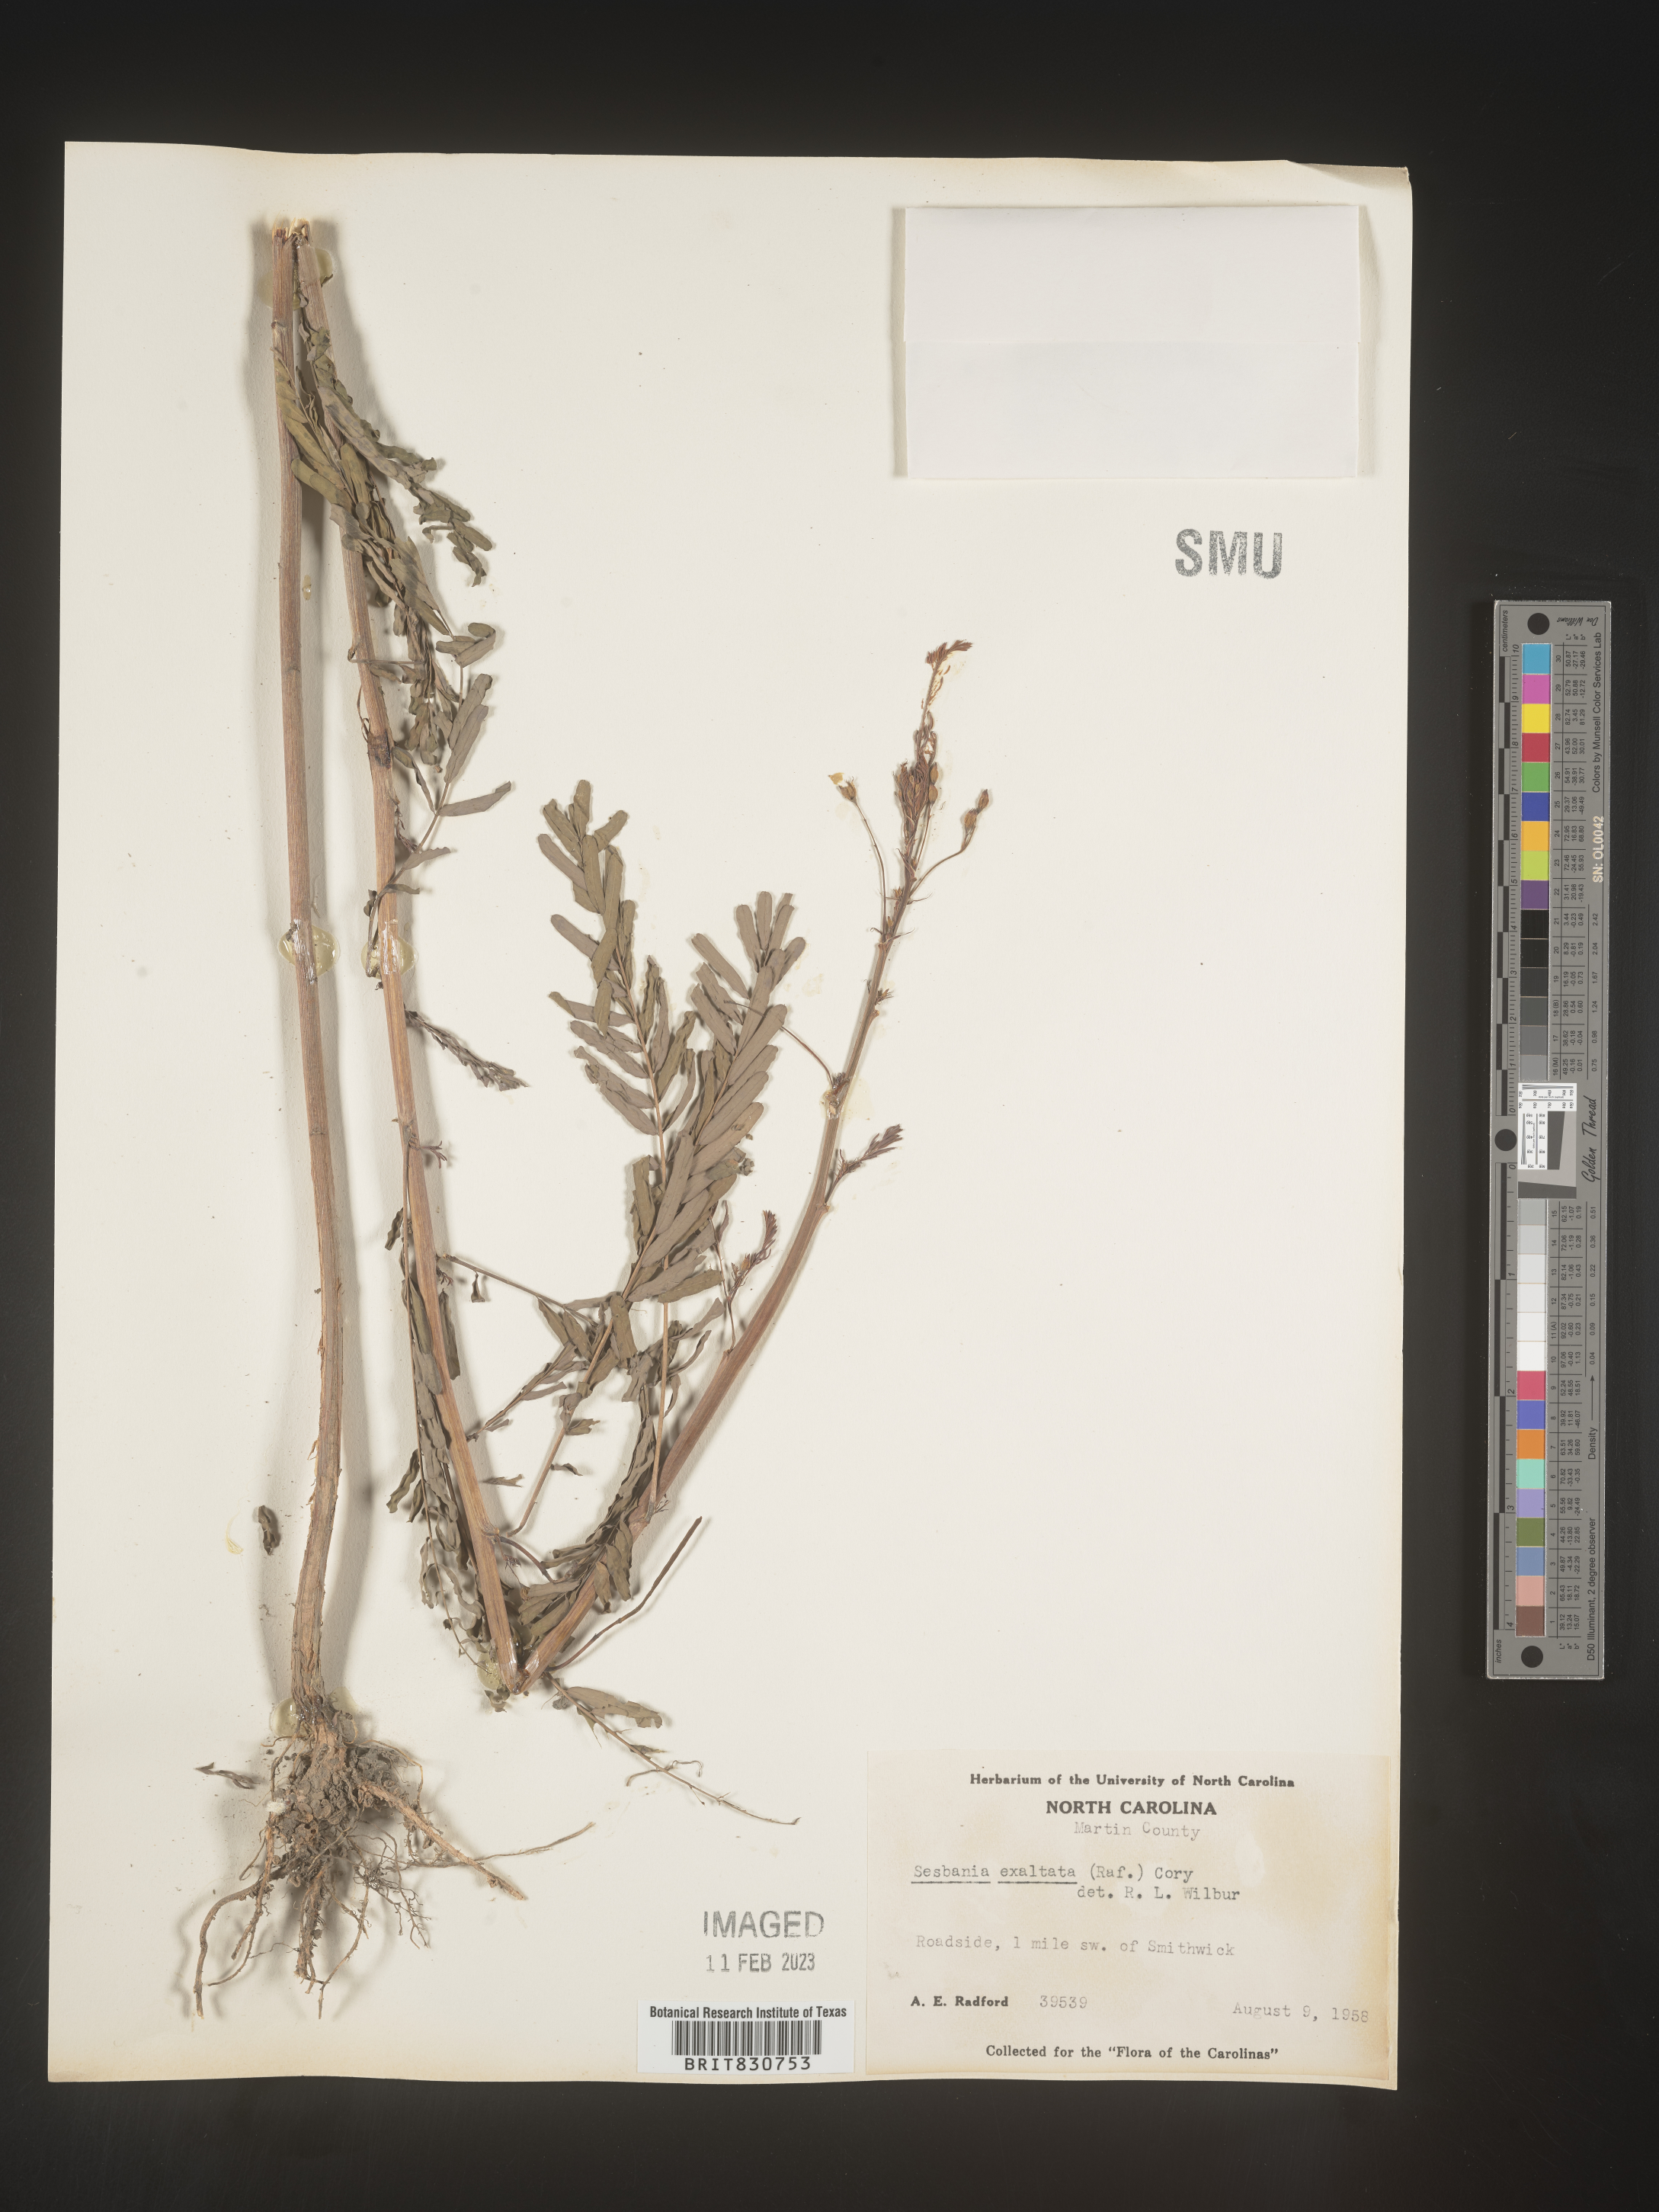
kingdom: Plantae
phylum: Tracheophyta
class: Magnoliopsida
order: Fabales
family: Fabaceae
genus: Sesbania
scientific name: Sesbania vesicaria
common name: Bagpod
